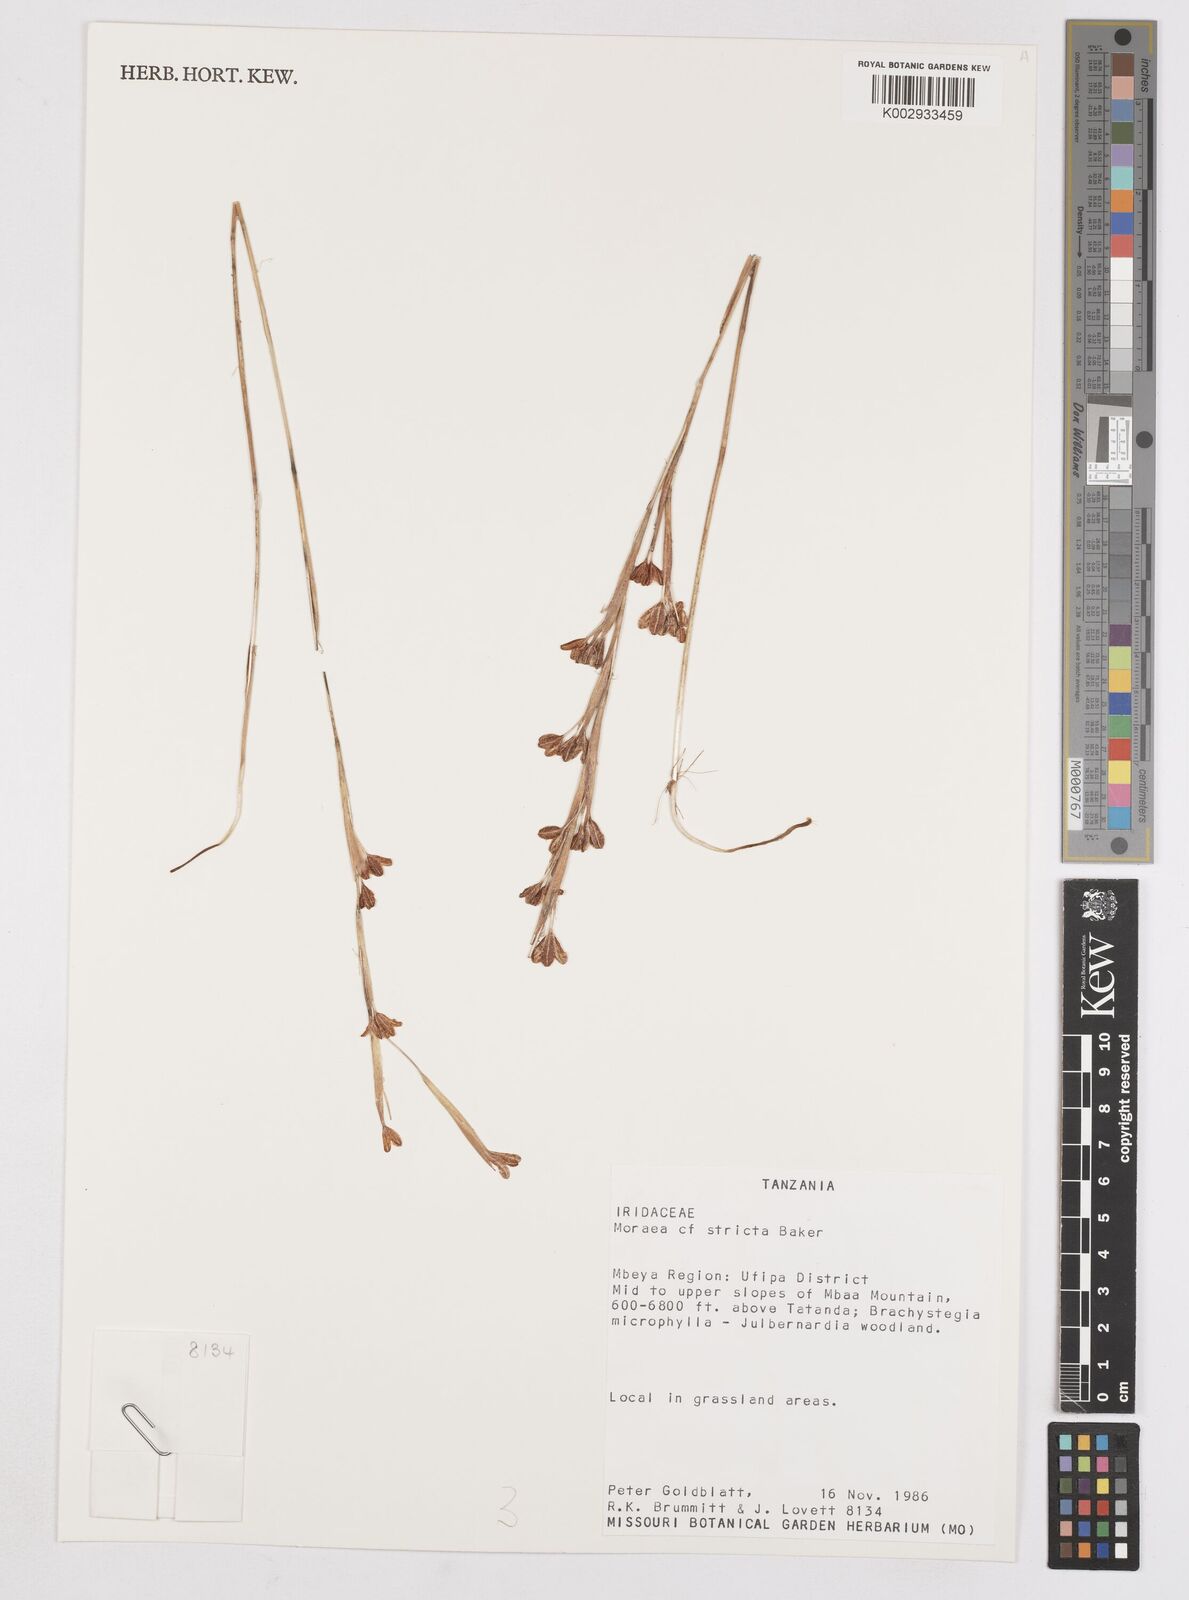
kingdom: Plantae
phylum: Tracheophyta
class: Liliopsida
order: Asparagales
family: Iridaceae
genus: Moraea
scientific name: Moraea stricta
